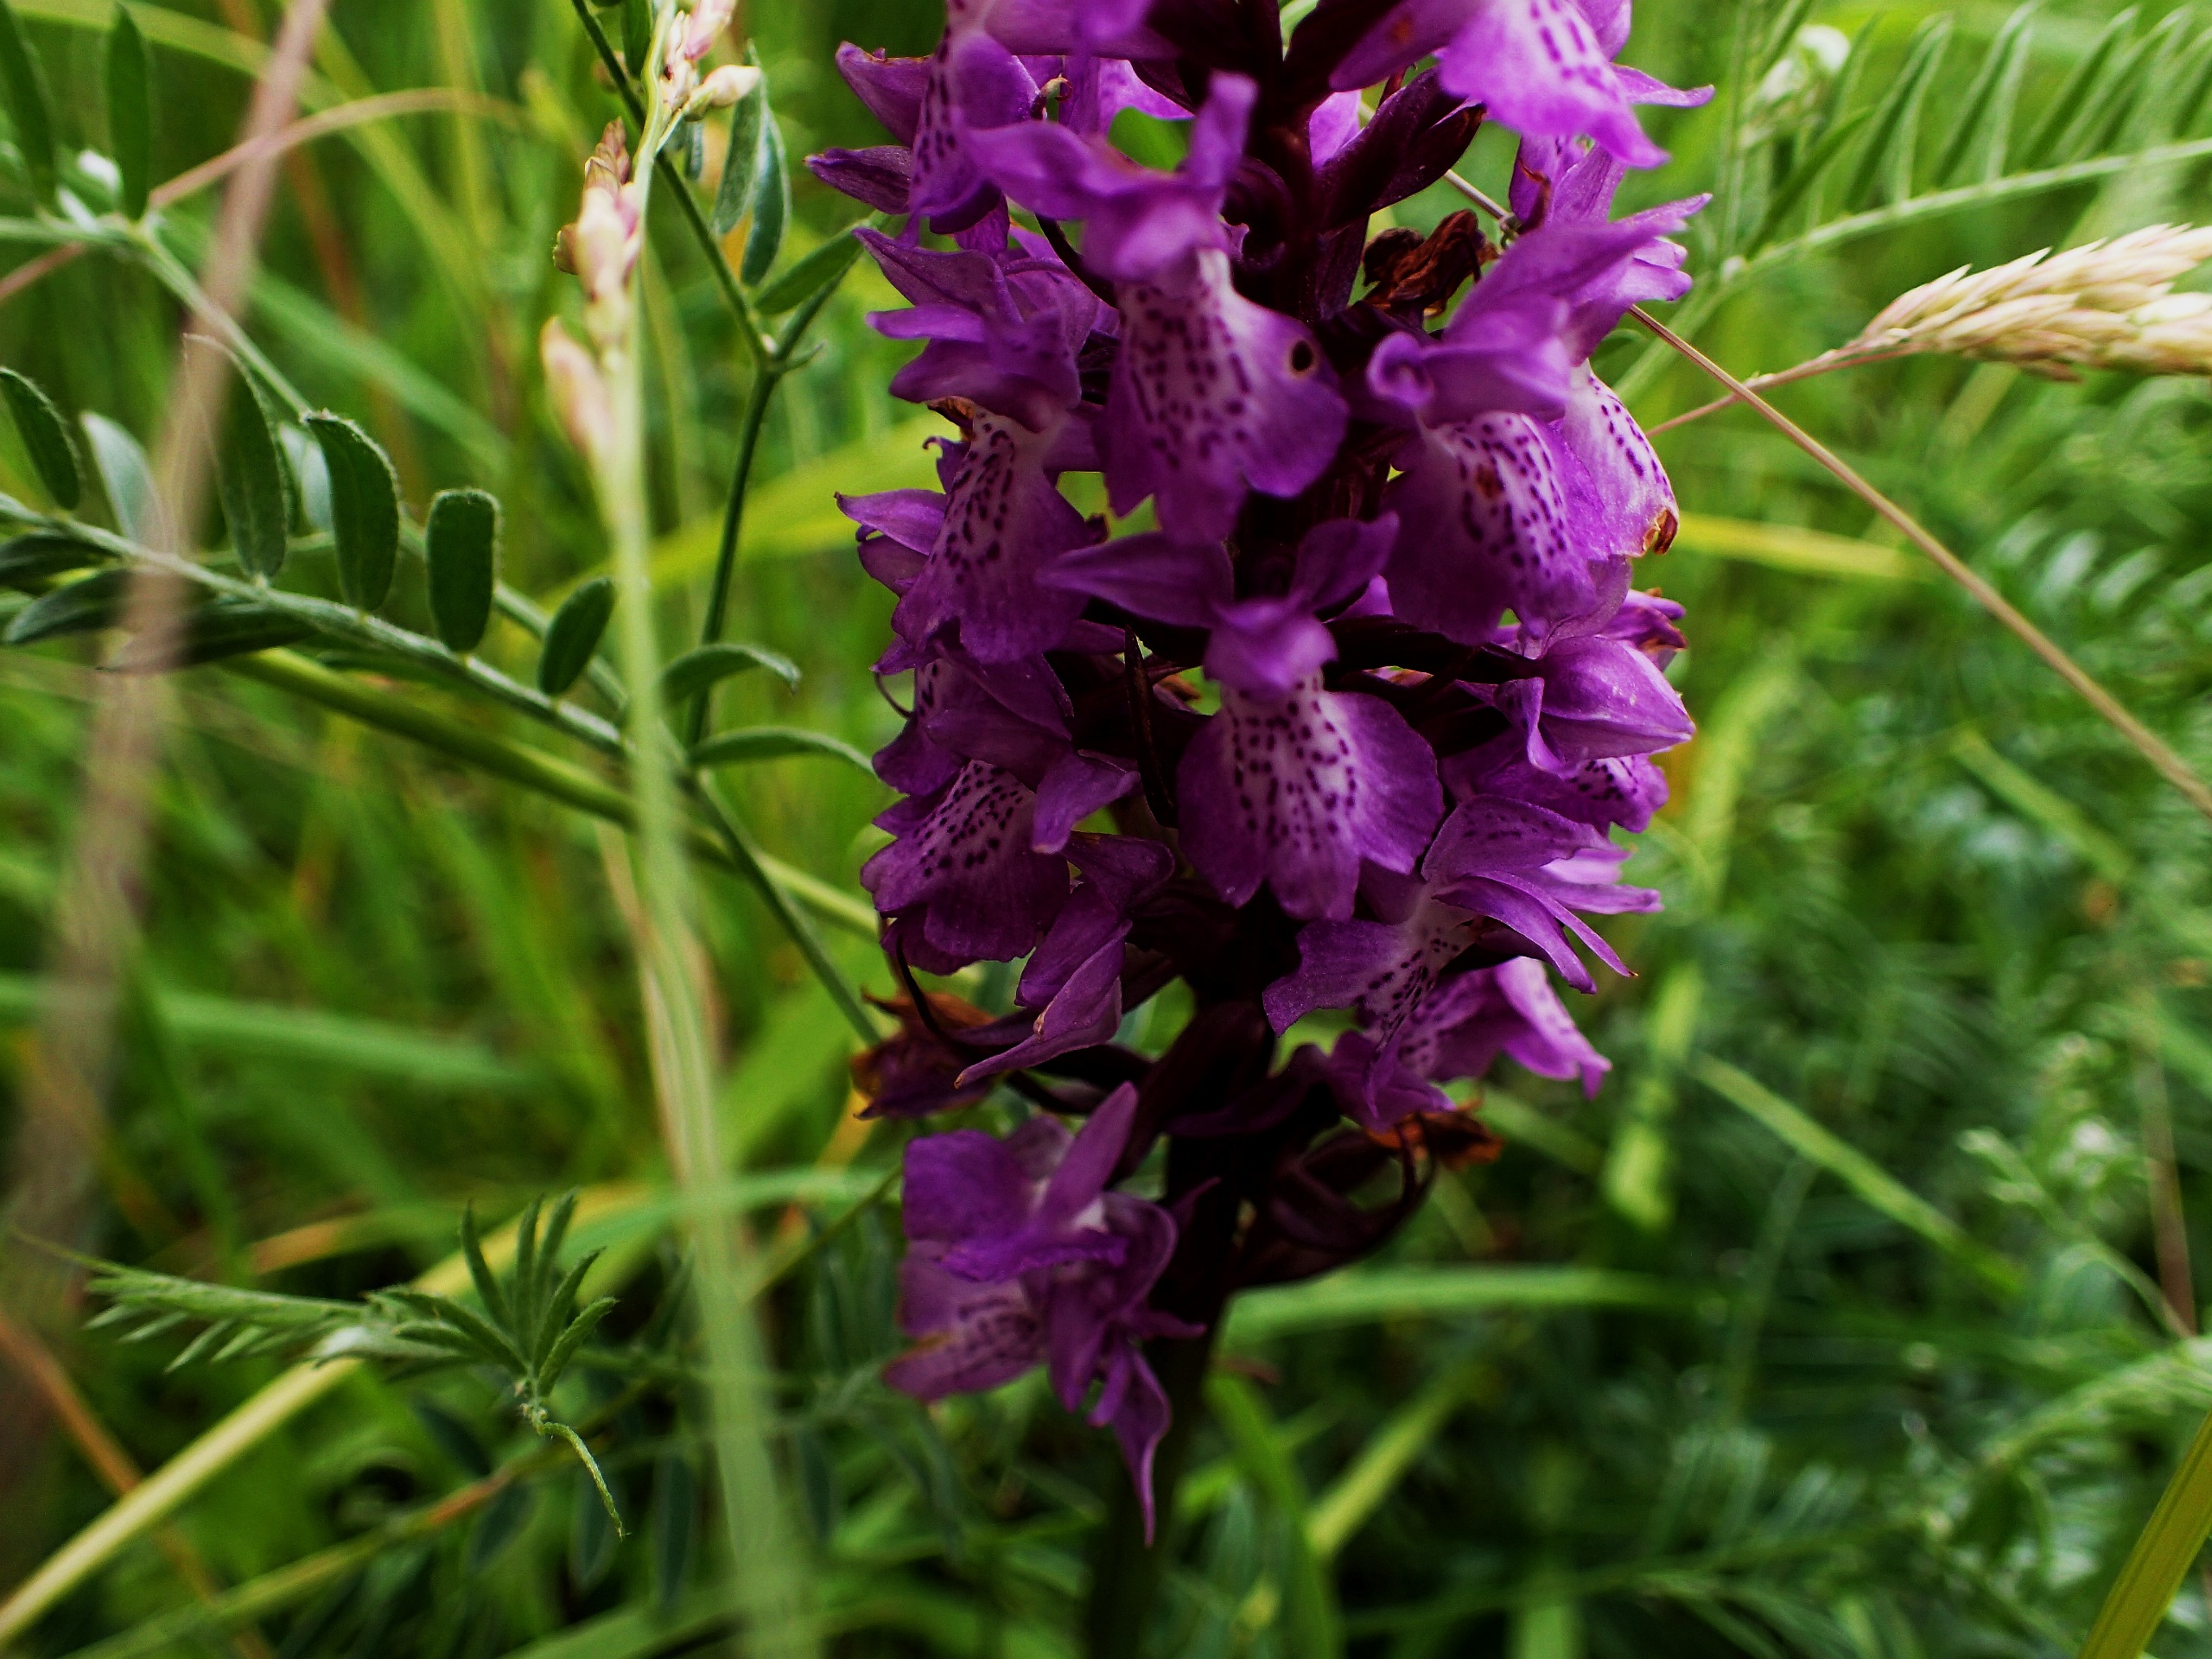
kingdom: Plantae
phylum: Tracheophyta
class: Liliopsida
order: Asparagales
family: Orchidaceae
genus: Dactylorhiza
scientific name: Dactylorhiza majalis
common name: Priklæbet gøgeurt
